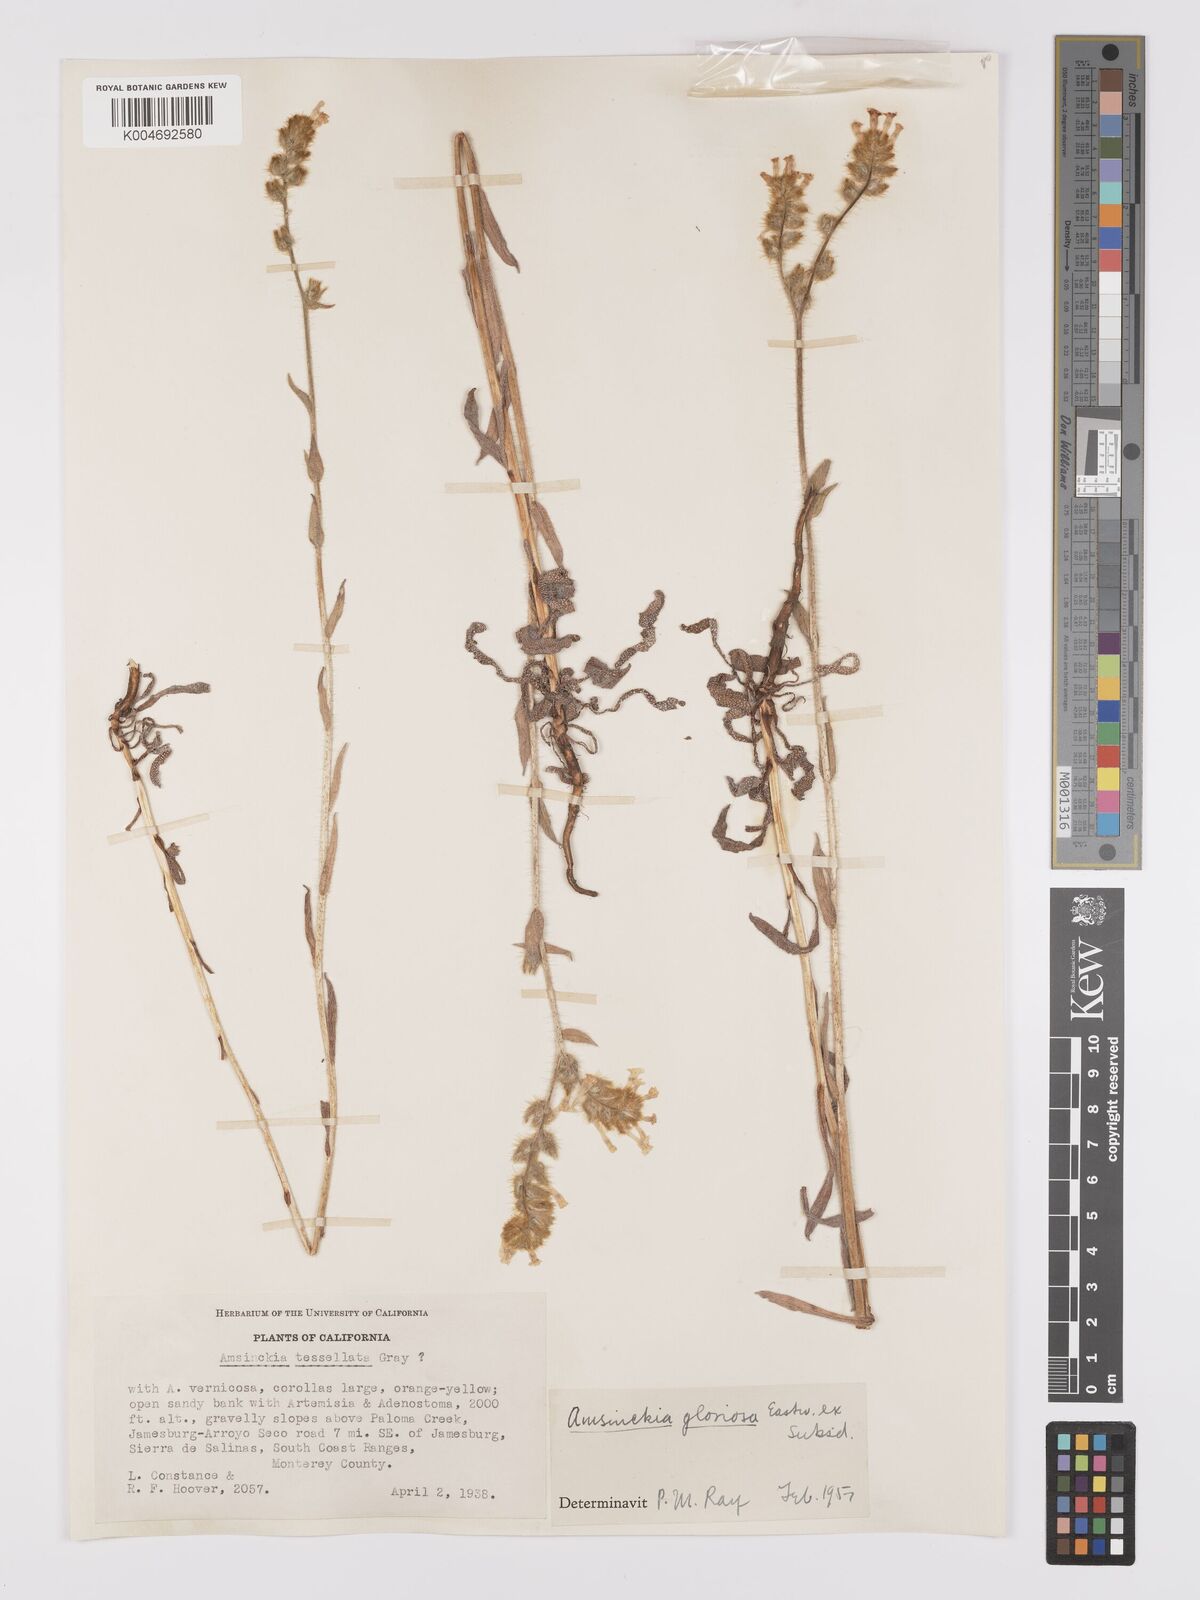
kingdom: Plantae
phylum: Tracheophyta
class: Magnoliopsida
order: Boraginales
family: Boraginaceae
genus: Amsinckia
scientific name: Amsinckia tessellata
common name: Tessellate fiddleneck
